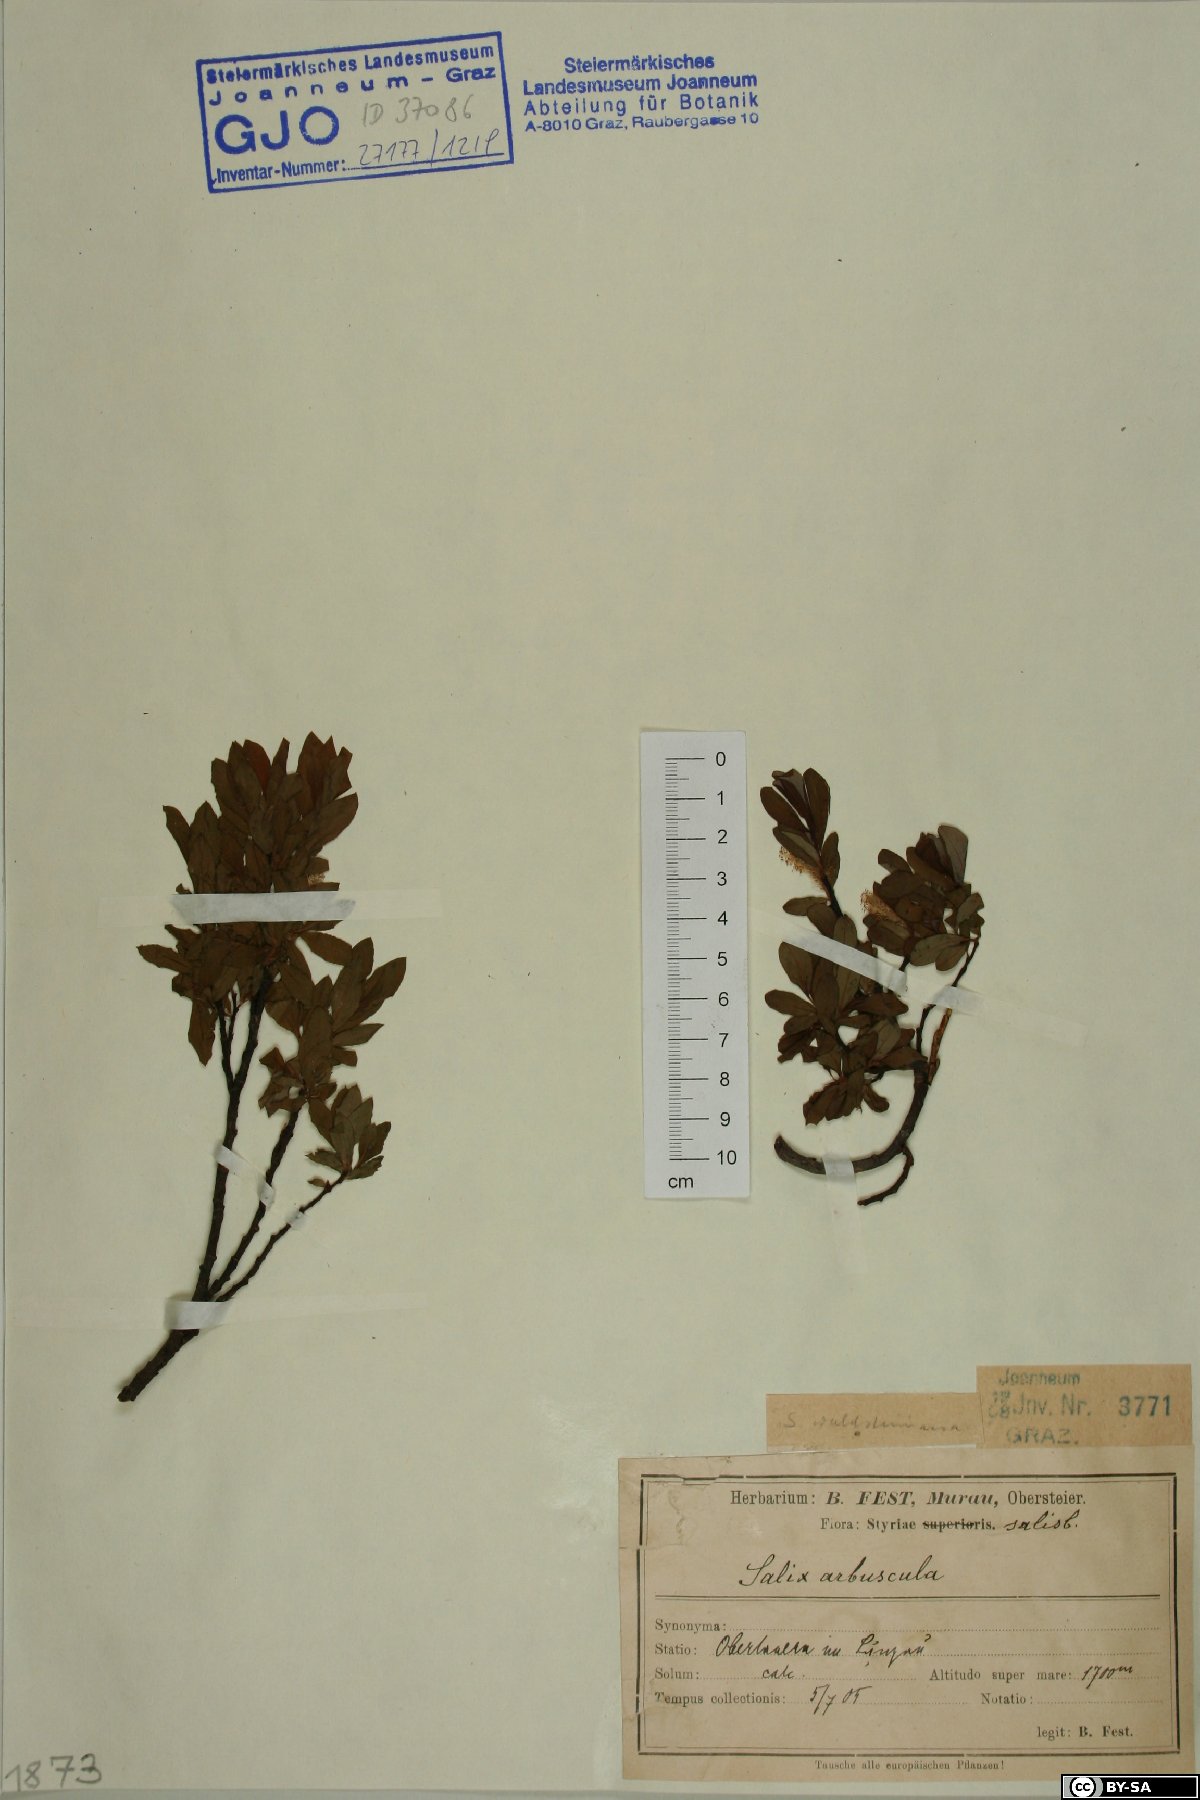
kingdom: Plantae
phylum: Tracheophyta
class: Magnoliopsida
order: Malpighiales
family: Salicaceae
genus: Salix
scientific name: Salix waldsteiniana
